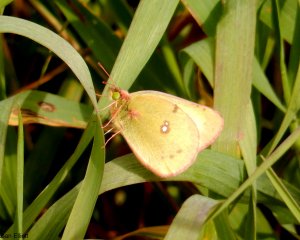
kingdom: Animalia
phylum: Arthropoda
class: Insecta
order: Lepidoptera
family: Pieridae
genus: Colias
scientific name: Colias philodice
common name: Clouded Sulphur
